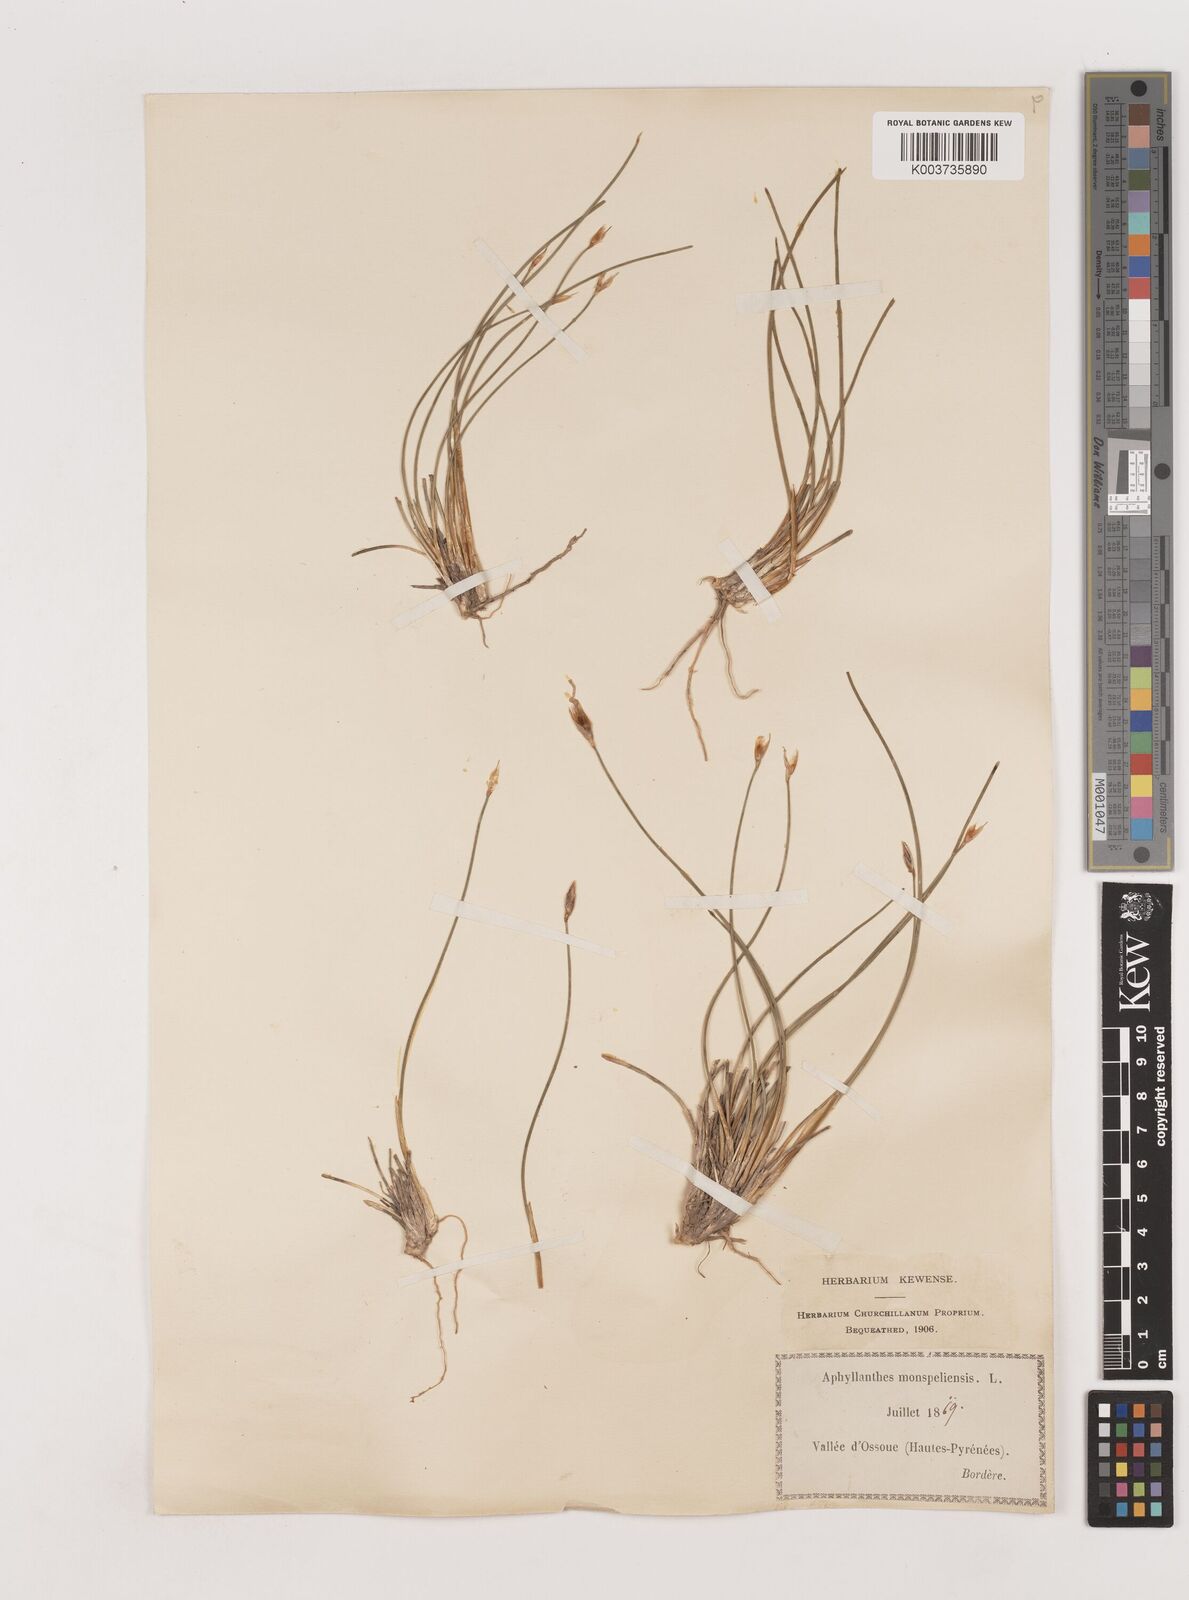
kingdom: Plantae
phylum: Tracheophyta
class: Liliopsida
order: Asparagales
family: Asparagaceae
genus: Aphyllanthes
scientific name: Aphyllanthes monspeliensis
